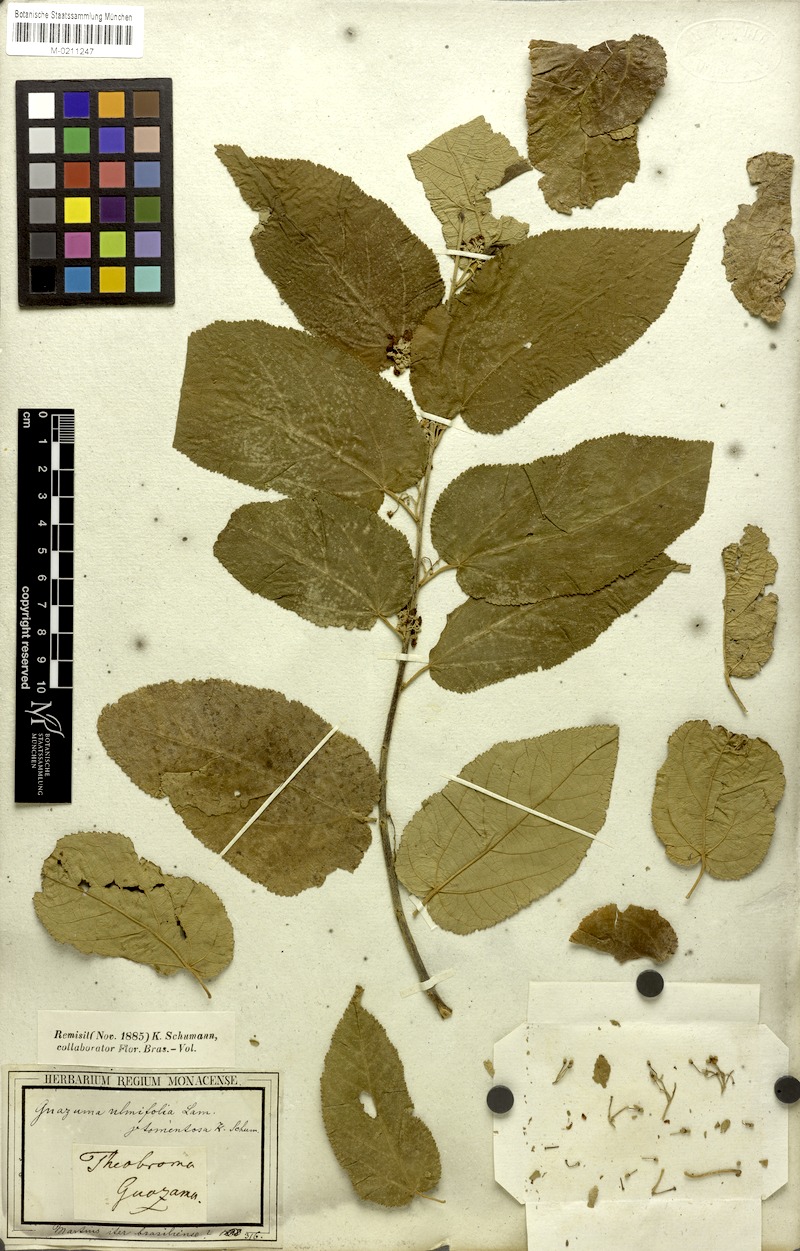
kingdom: Plantae
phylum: Tracheophyta
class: Magnoliopsida
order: Malvales
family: Malvaceae
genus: Guazuma
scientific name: Guazuma ulmifolia
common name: Bastard-cedar
